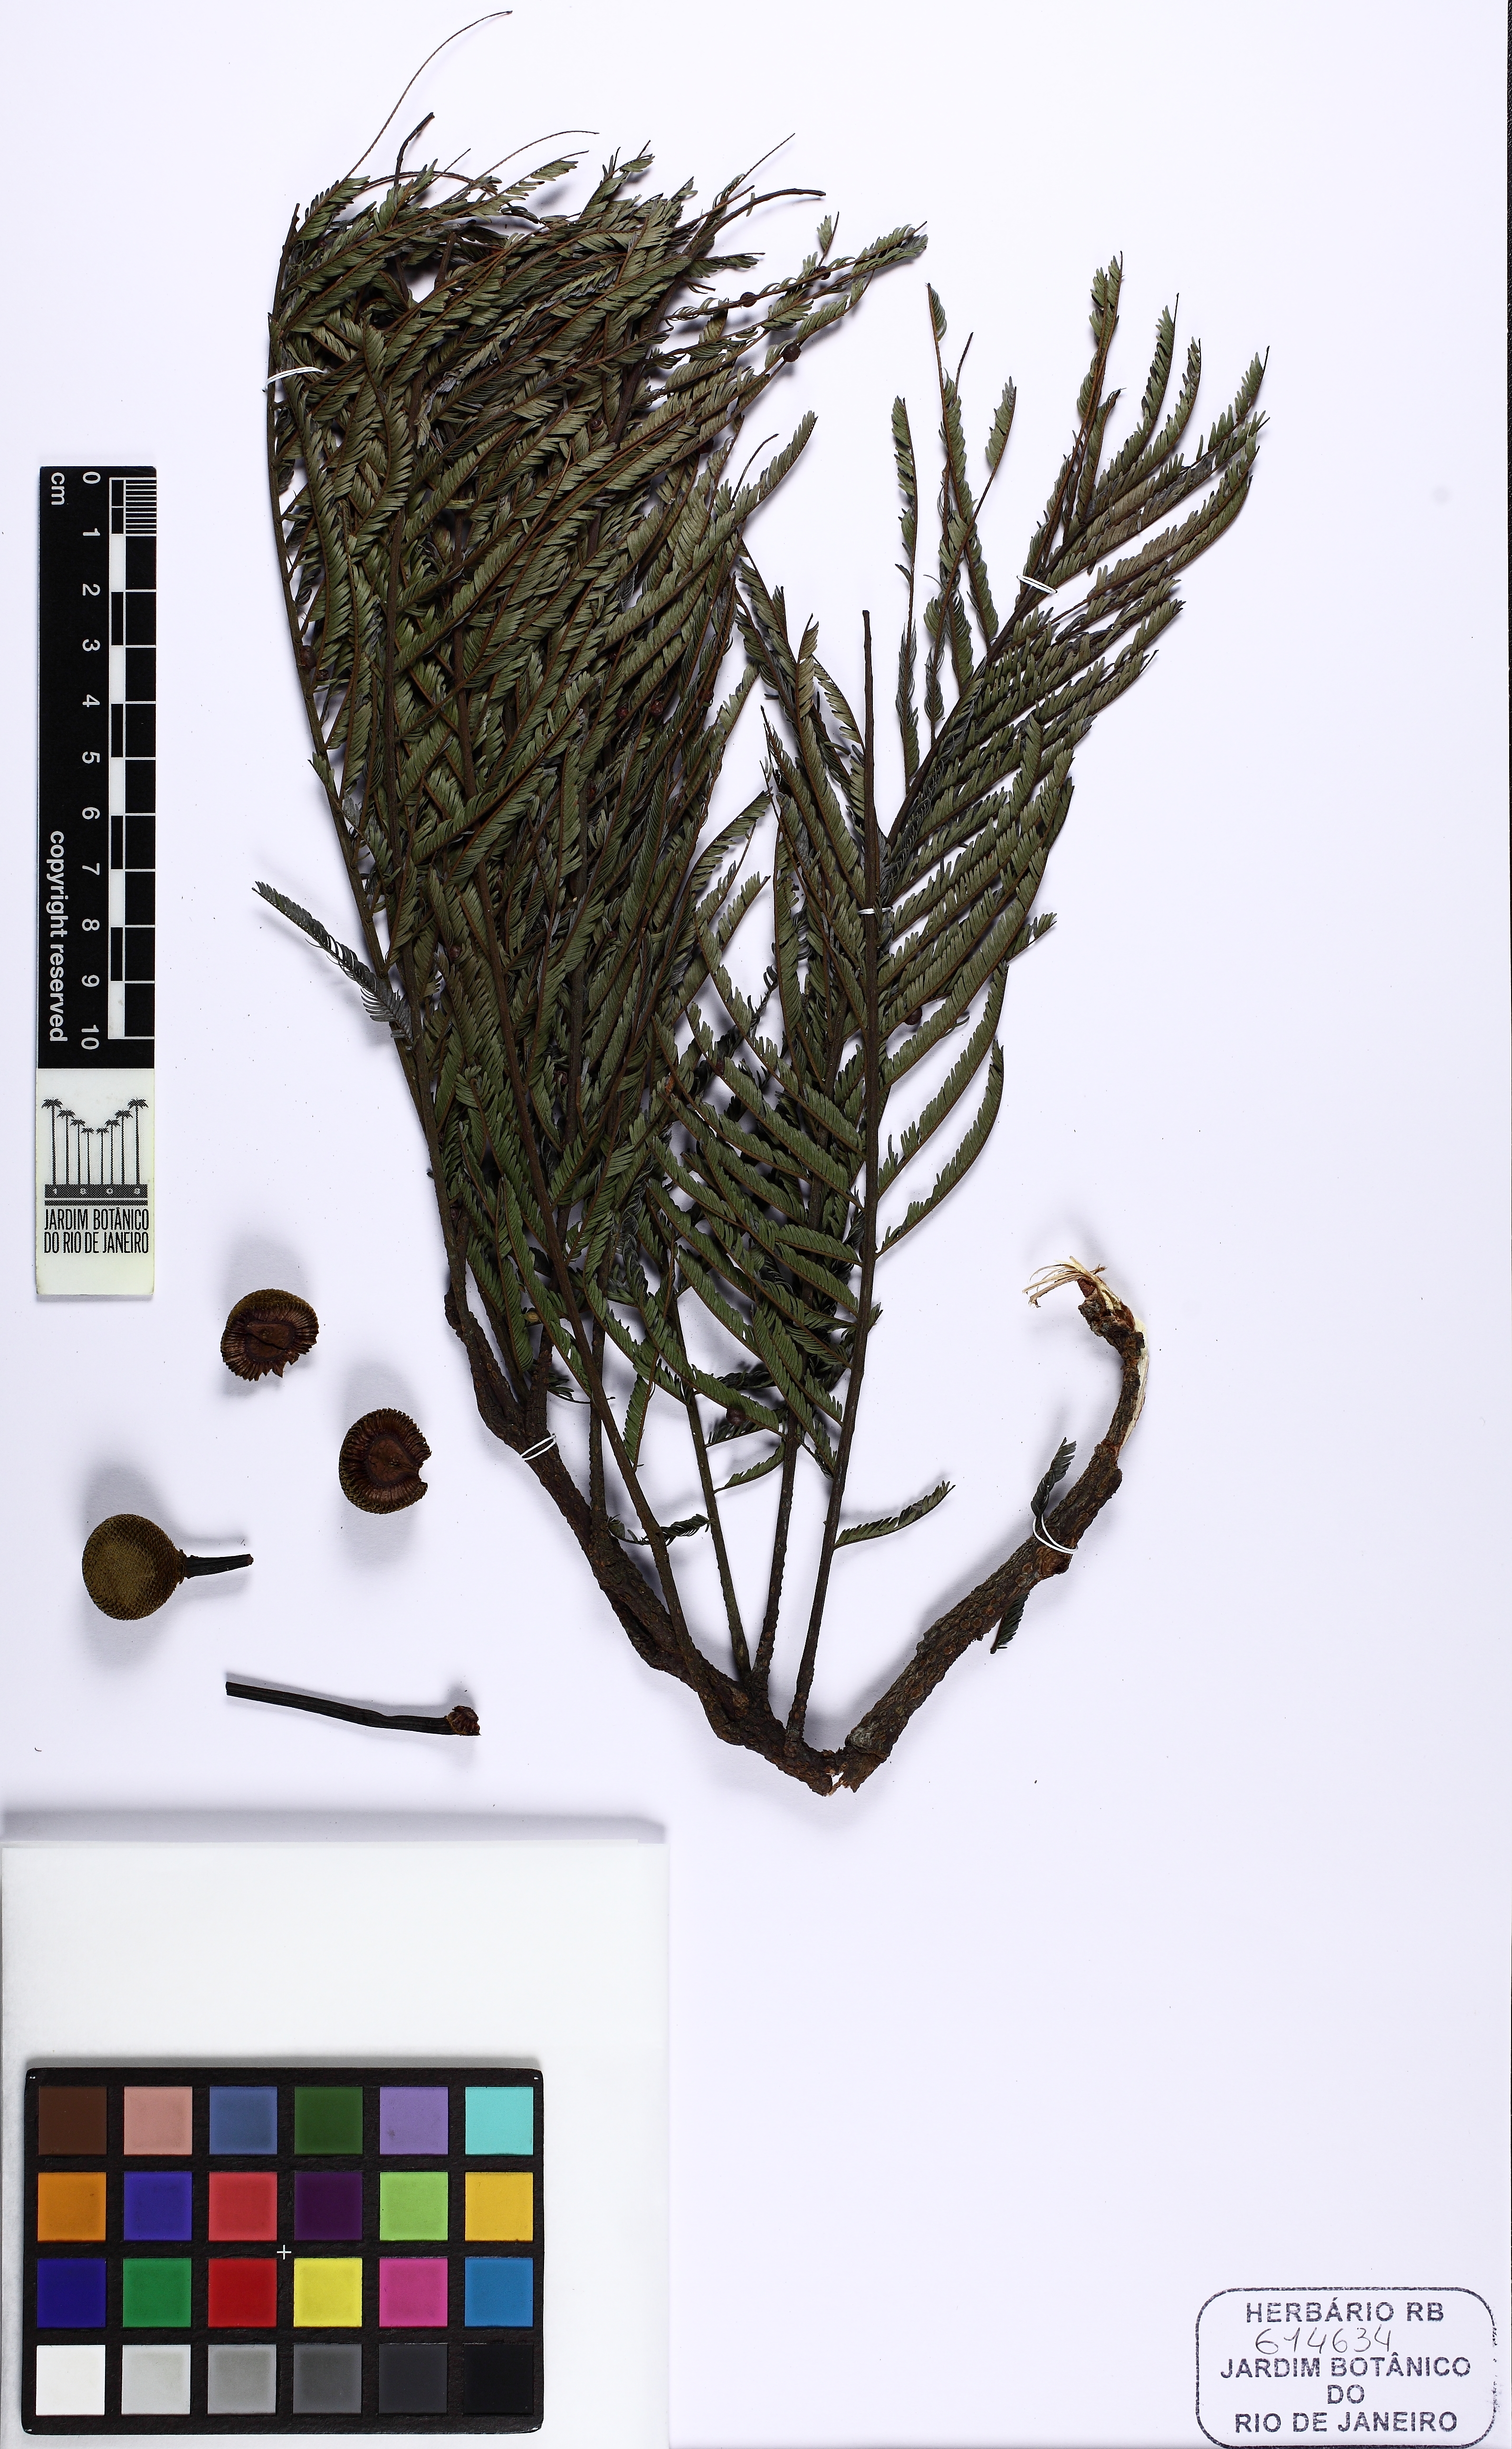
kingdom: Plantae
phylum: Tracheophyta
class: Magnoliopsida
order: Fabales
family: Fabaceae
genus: Parkia
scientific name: Parkia pendula
